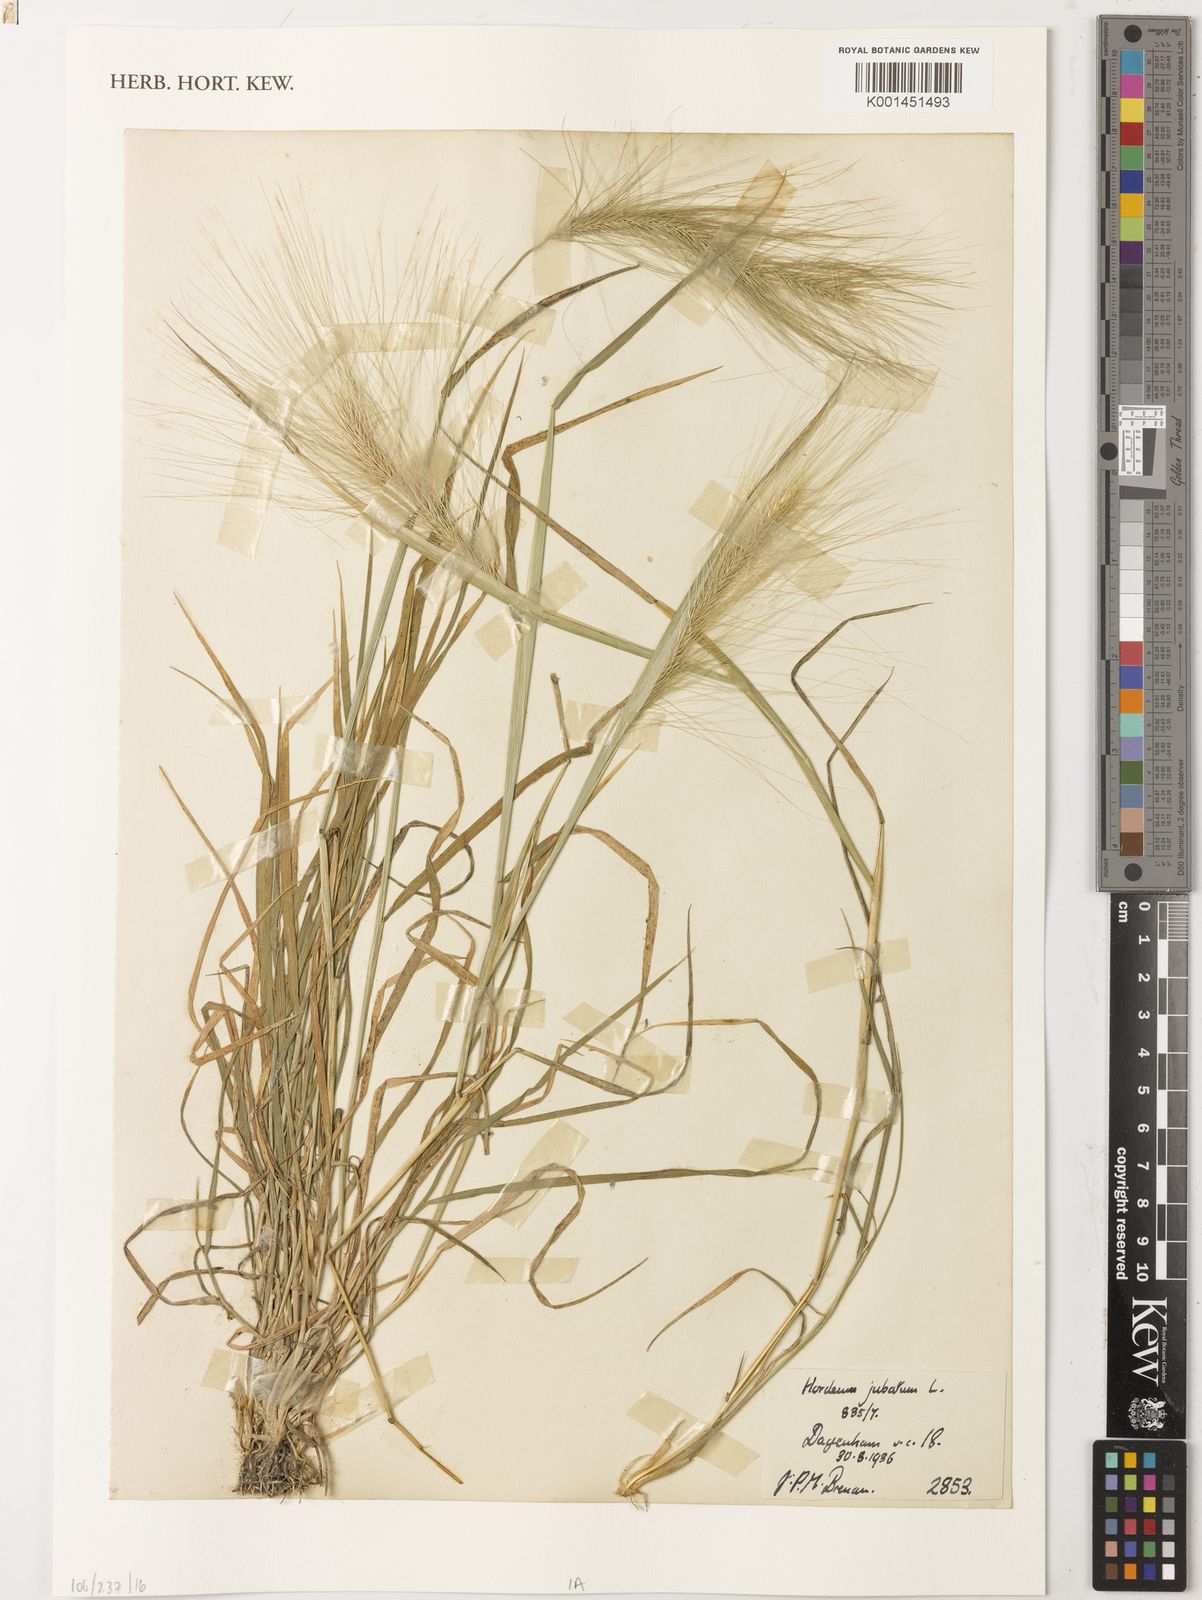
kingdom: Plantae
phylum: Tracheophyta
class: Liliopsida
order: Poales
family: Poaceae
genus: Hordeum
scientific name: Hordeum jubatum
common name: Foxtail barley
